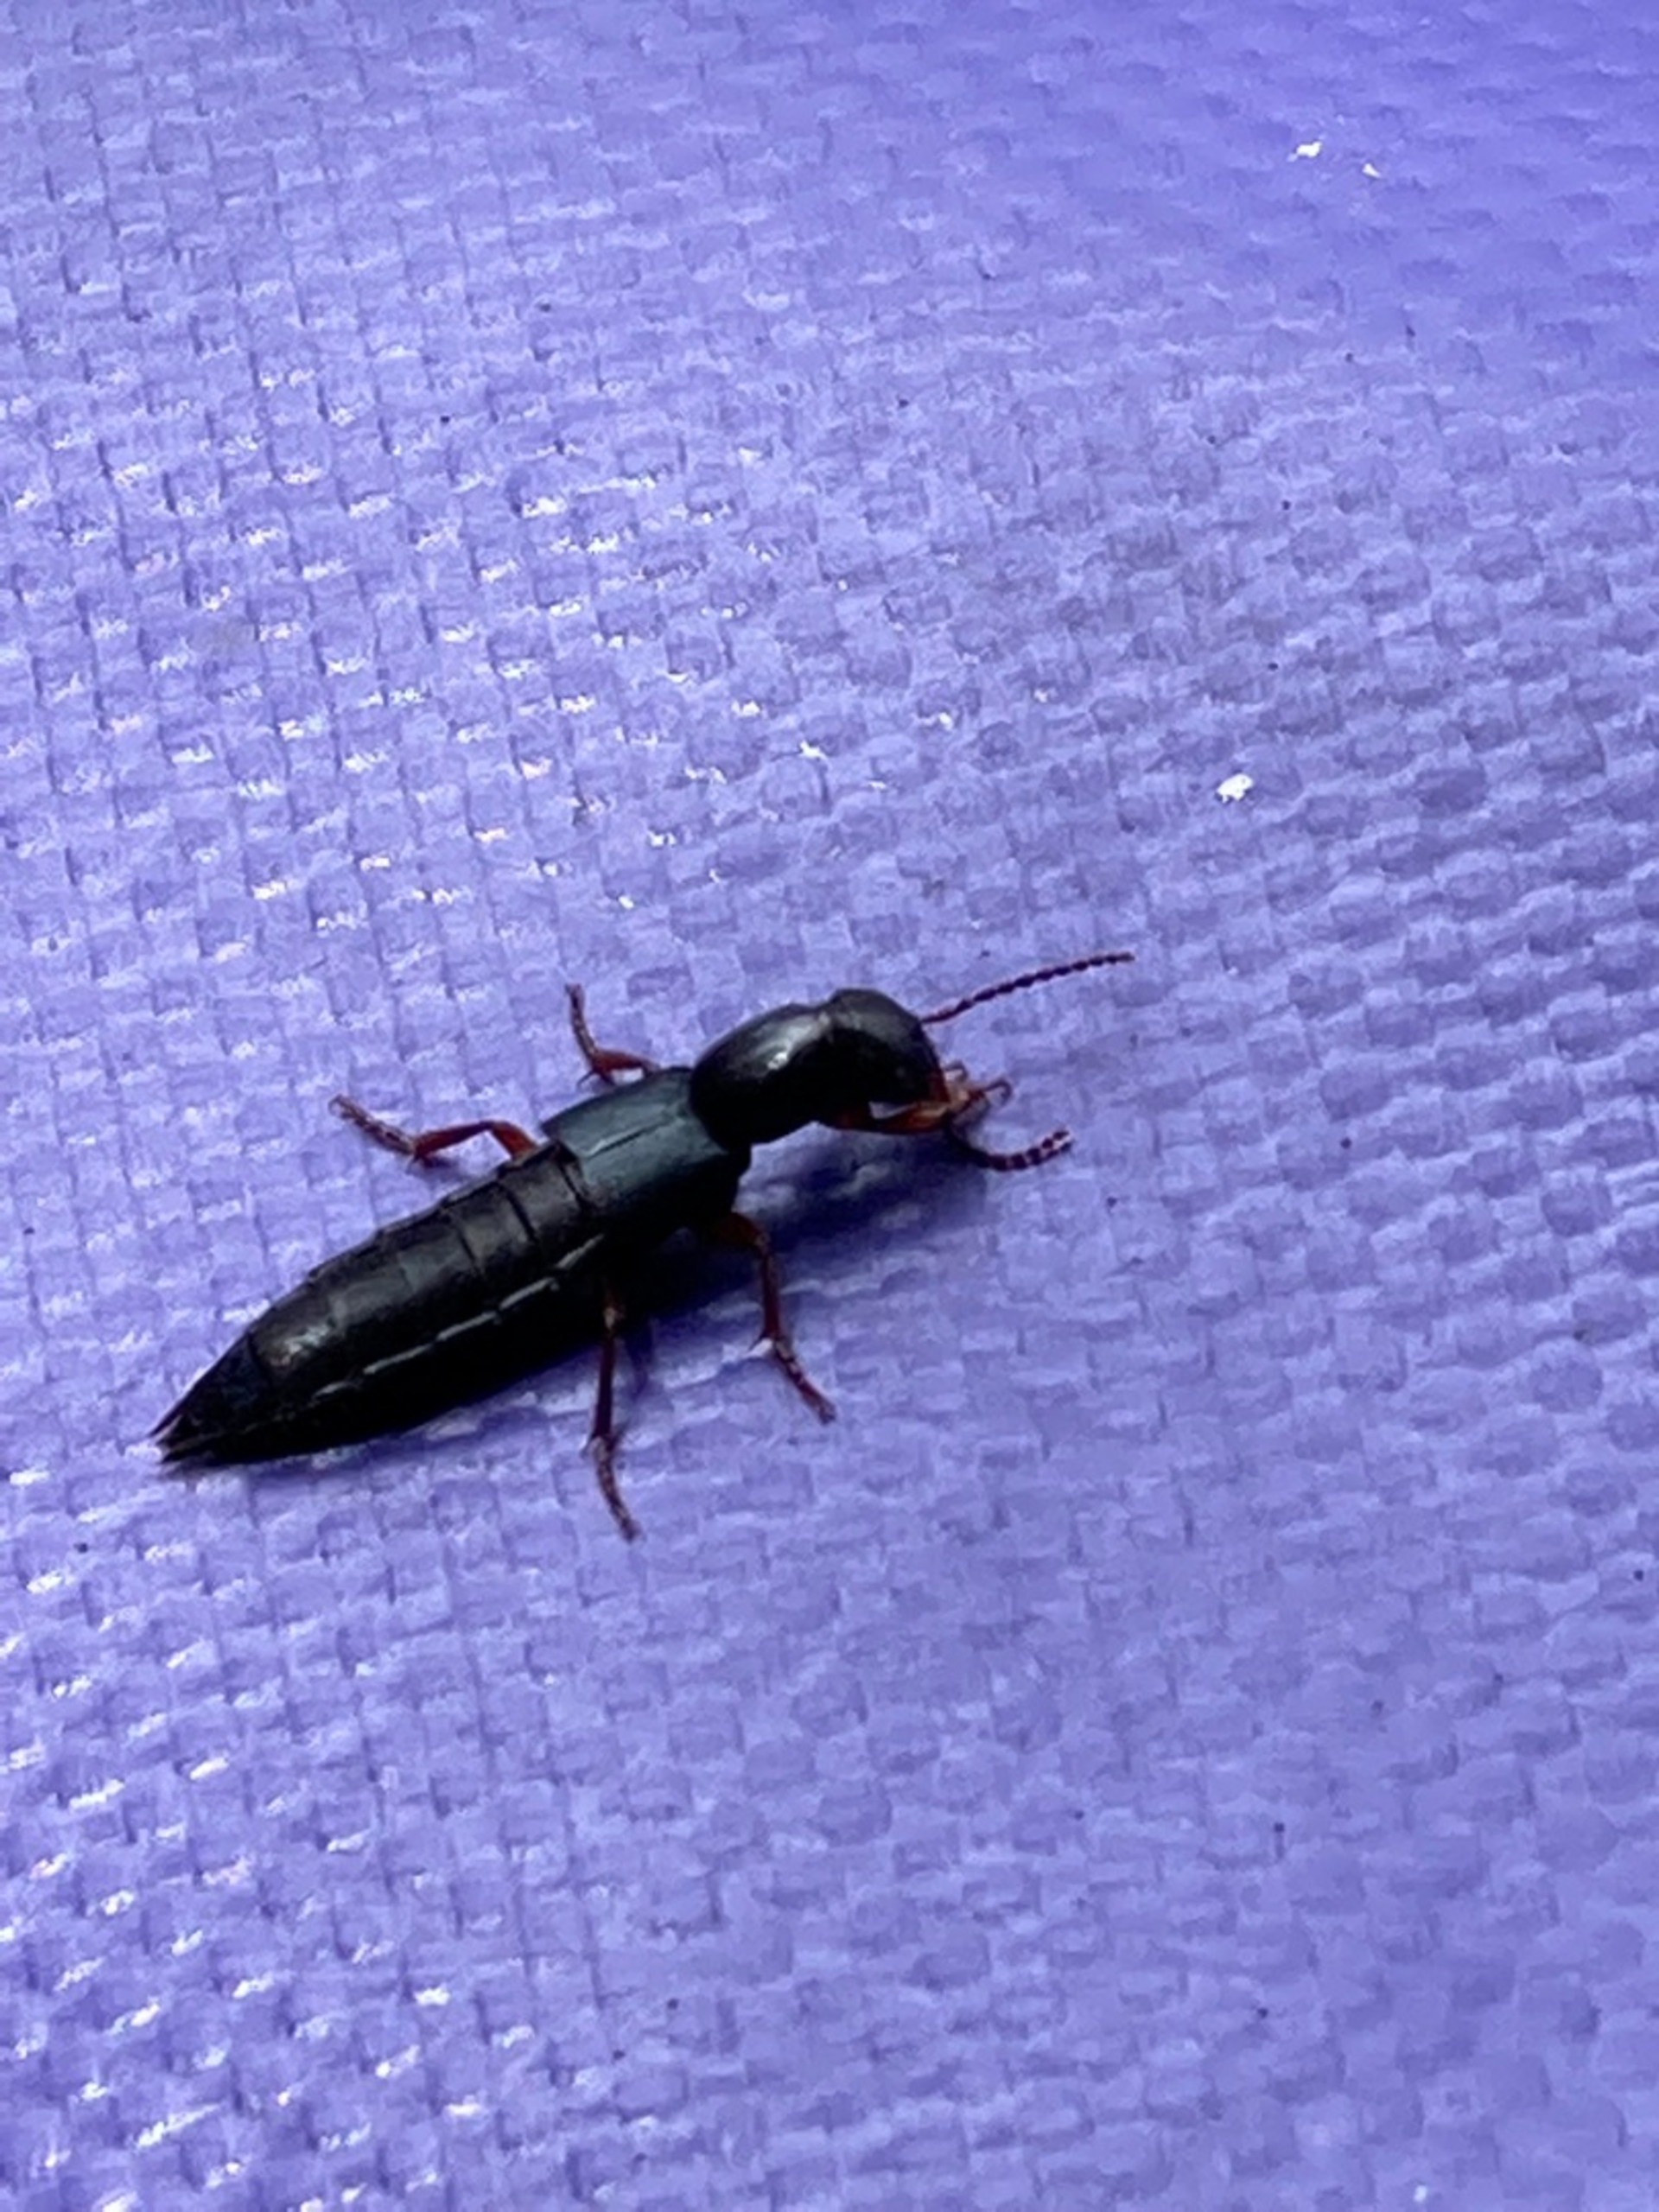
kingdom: Animalia
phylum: Arthropoda
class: Insecta
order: Coleoptera
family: Staphylinidae
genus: Tasgius
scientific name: Tasgius
